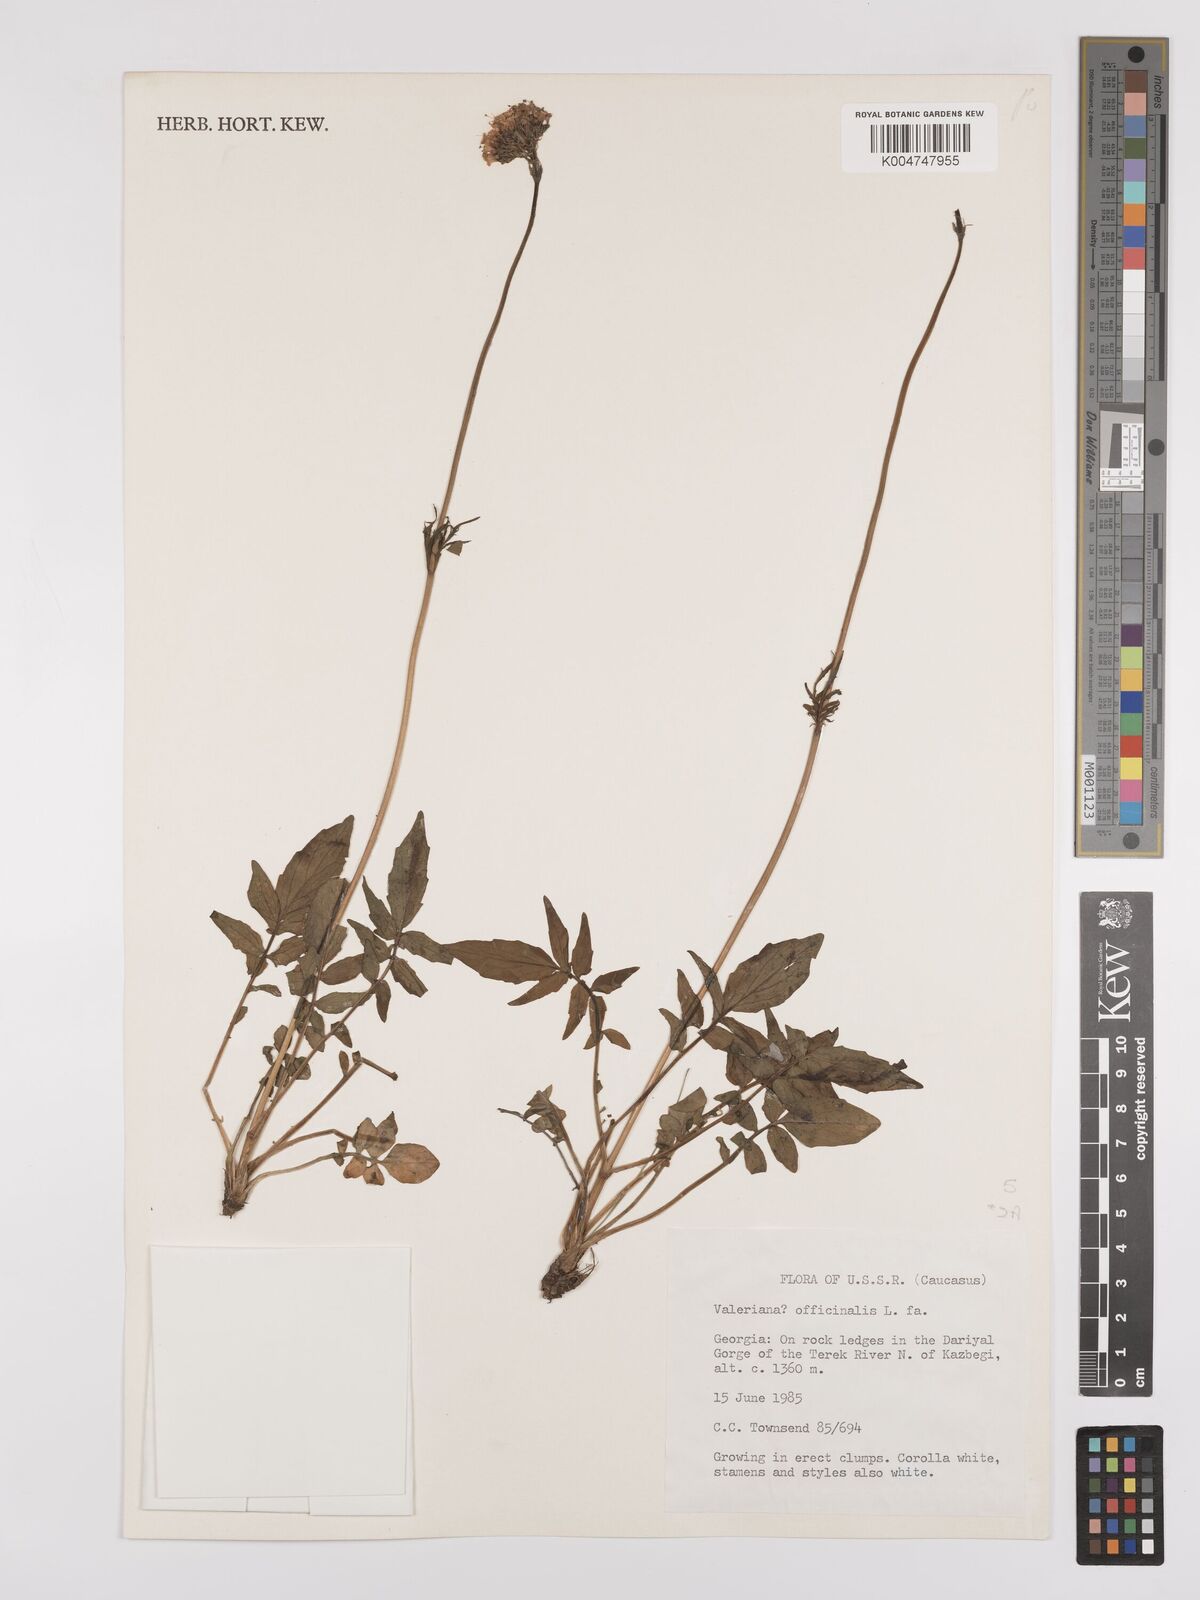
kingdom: Plantae
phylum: Tracheophyta
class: Magnoliopsida
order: Dipsacales
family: Caprifoliaceae
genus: Valeriana
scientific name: Valeriana officinalis
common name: Common valerian
